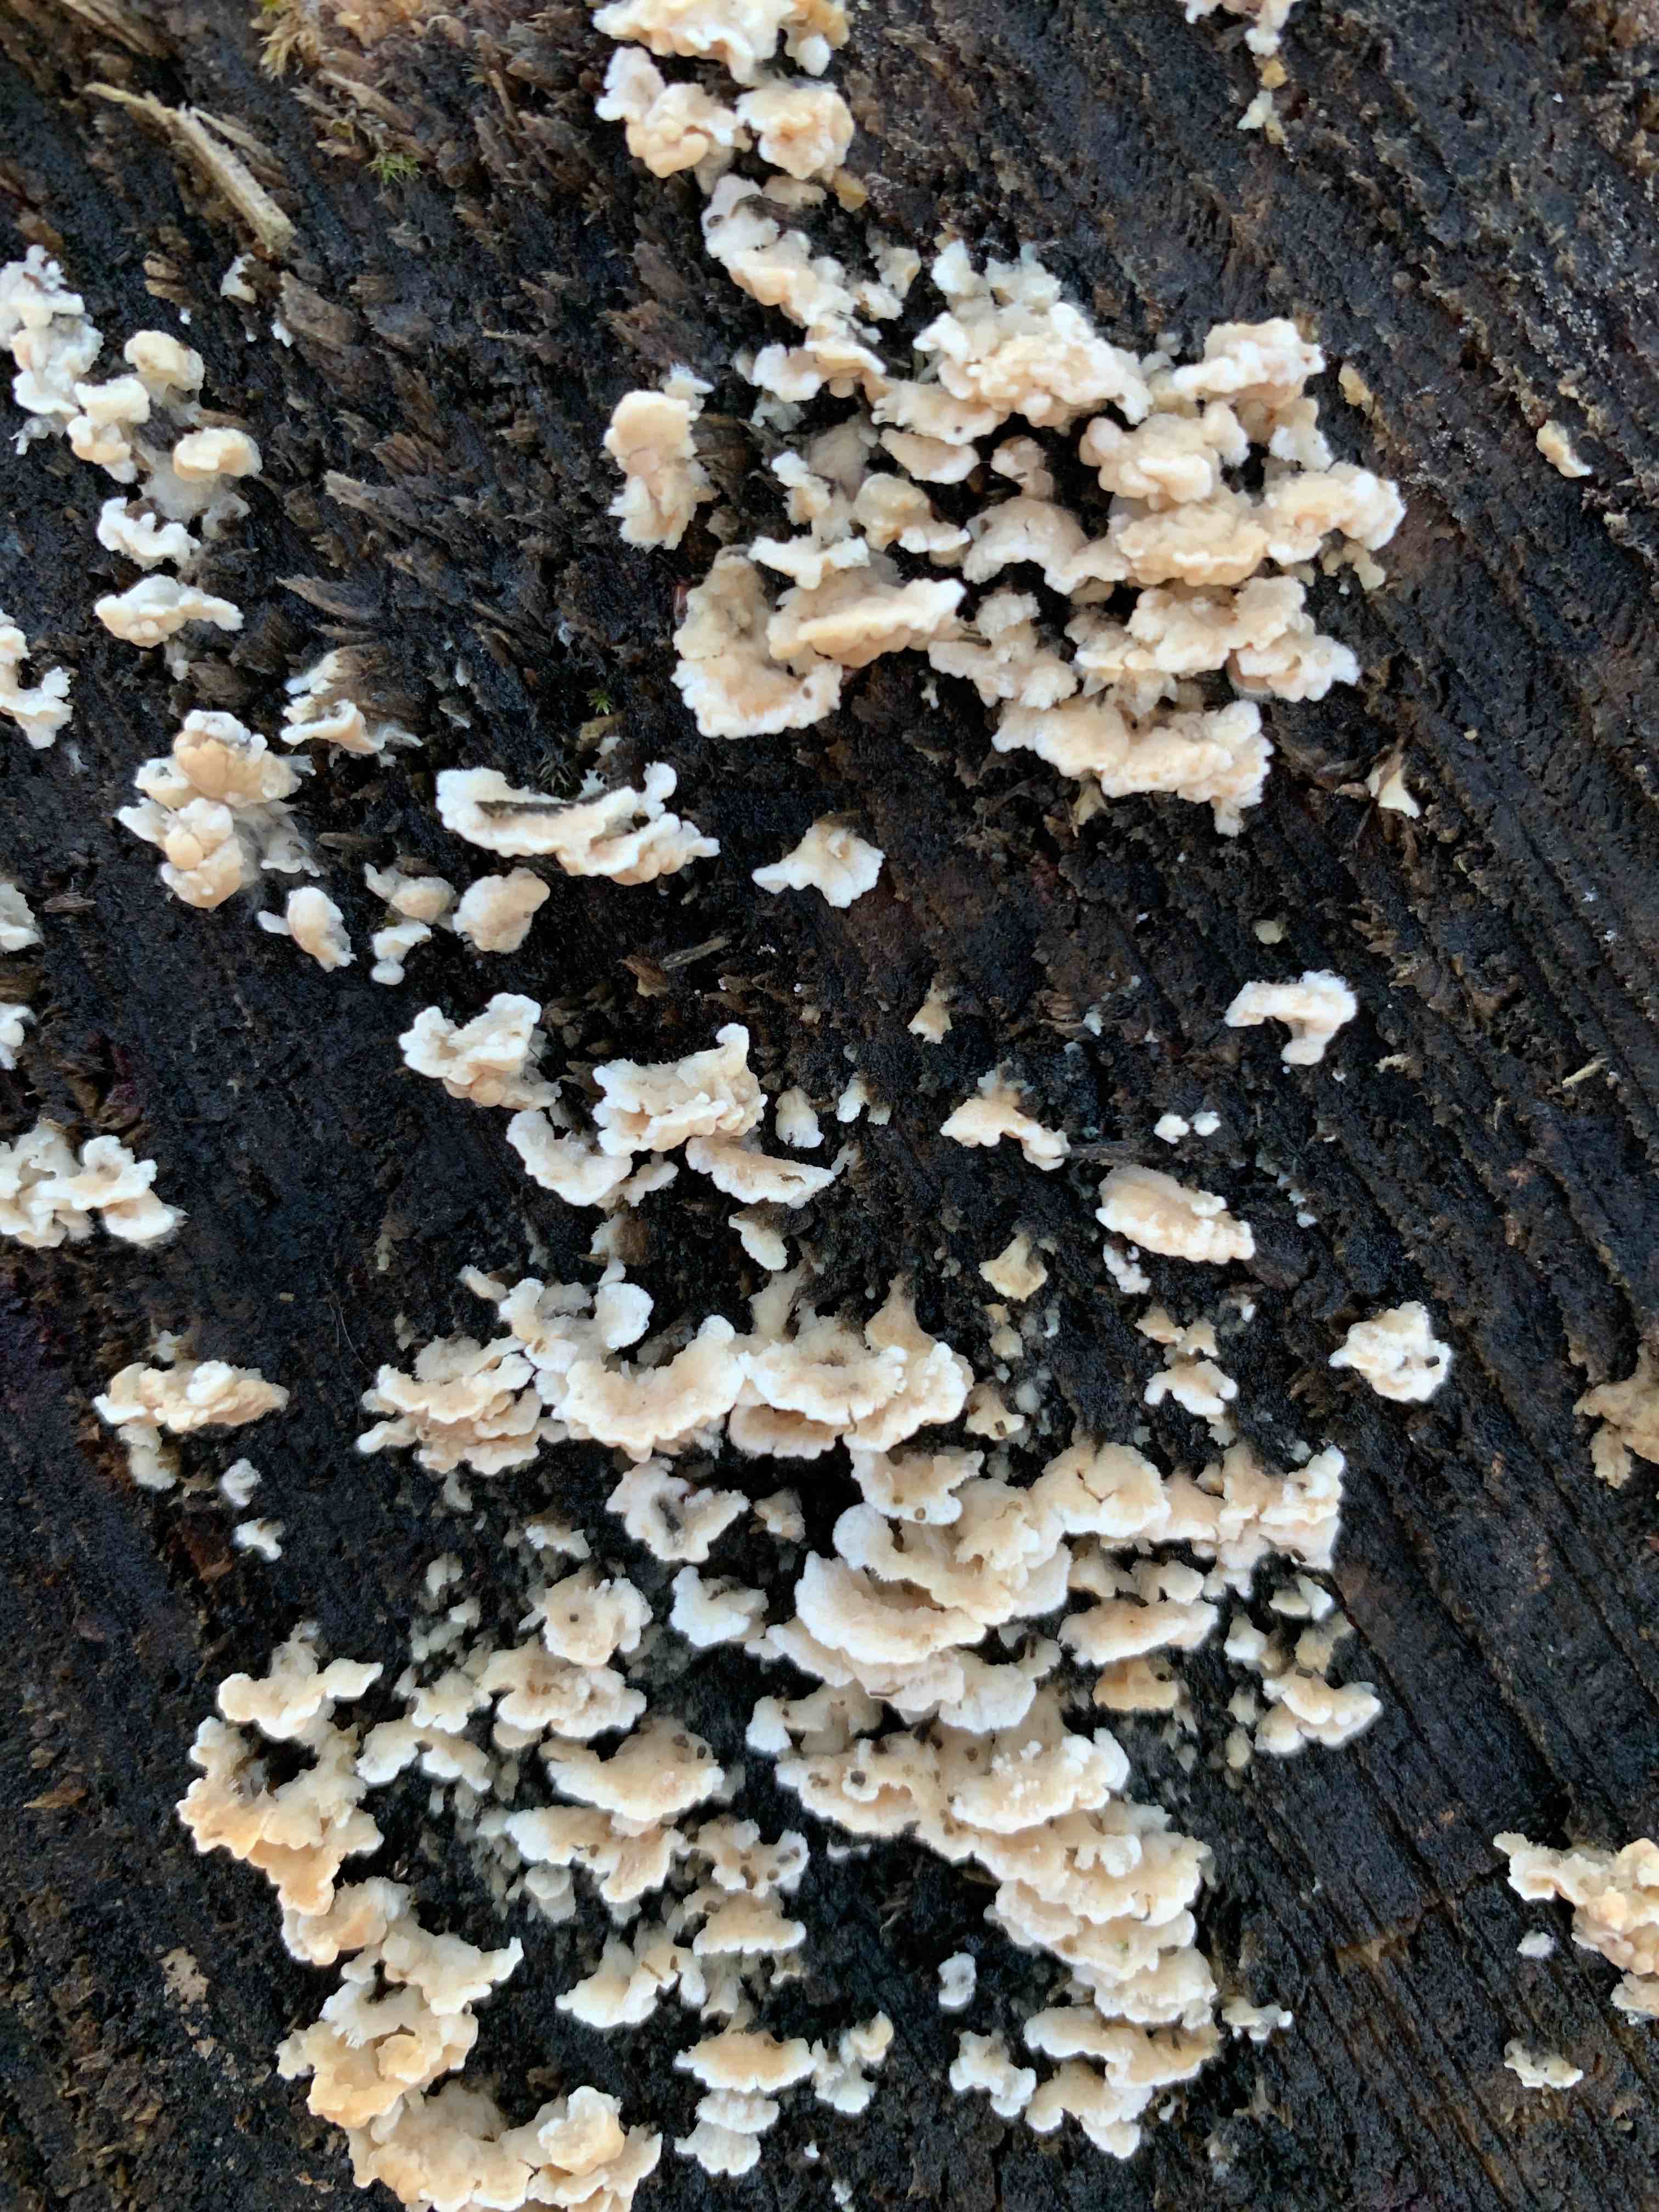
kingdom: Fungi
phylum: Basidiomycota
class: Agaricomycetes
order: Agaricales
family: Physalacriaceae
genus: Cylindrobasidium
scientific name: Cylindrobasidium evolvens
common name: sprækkehinde
